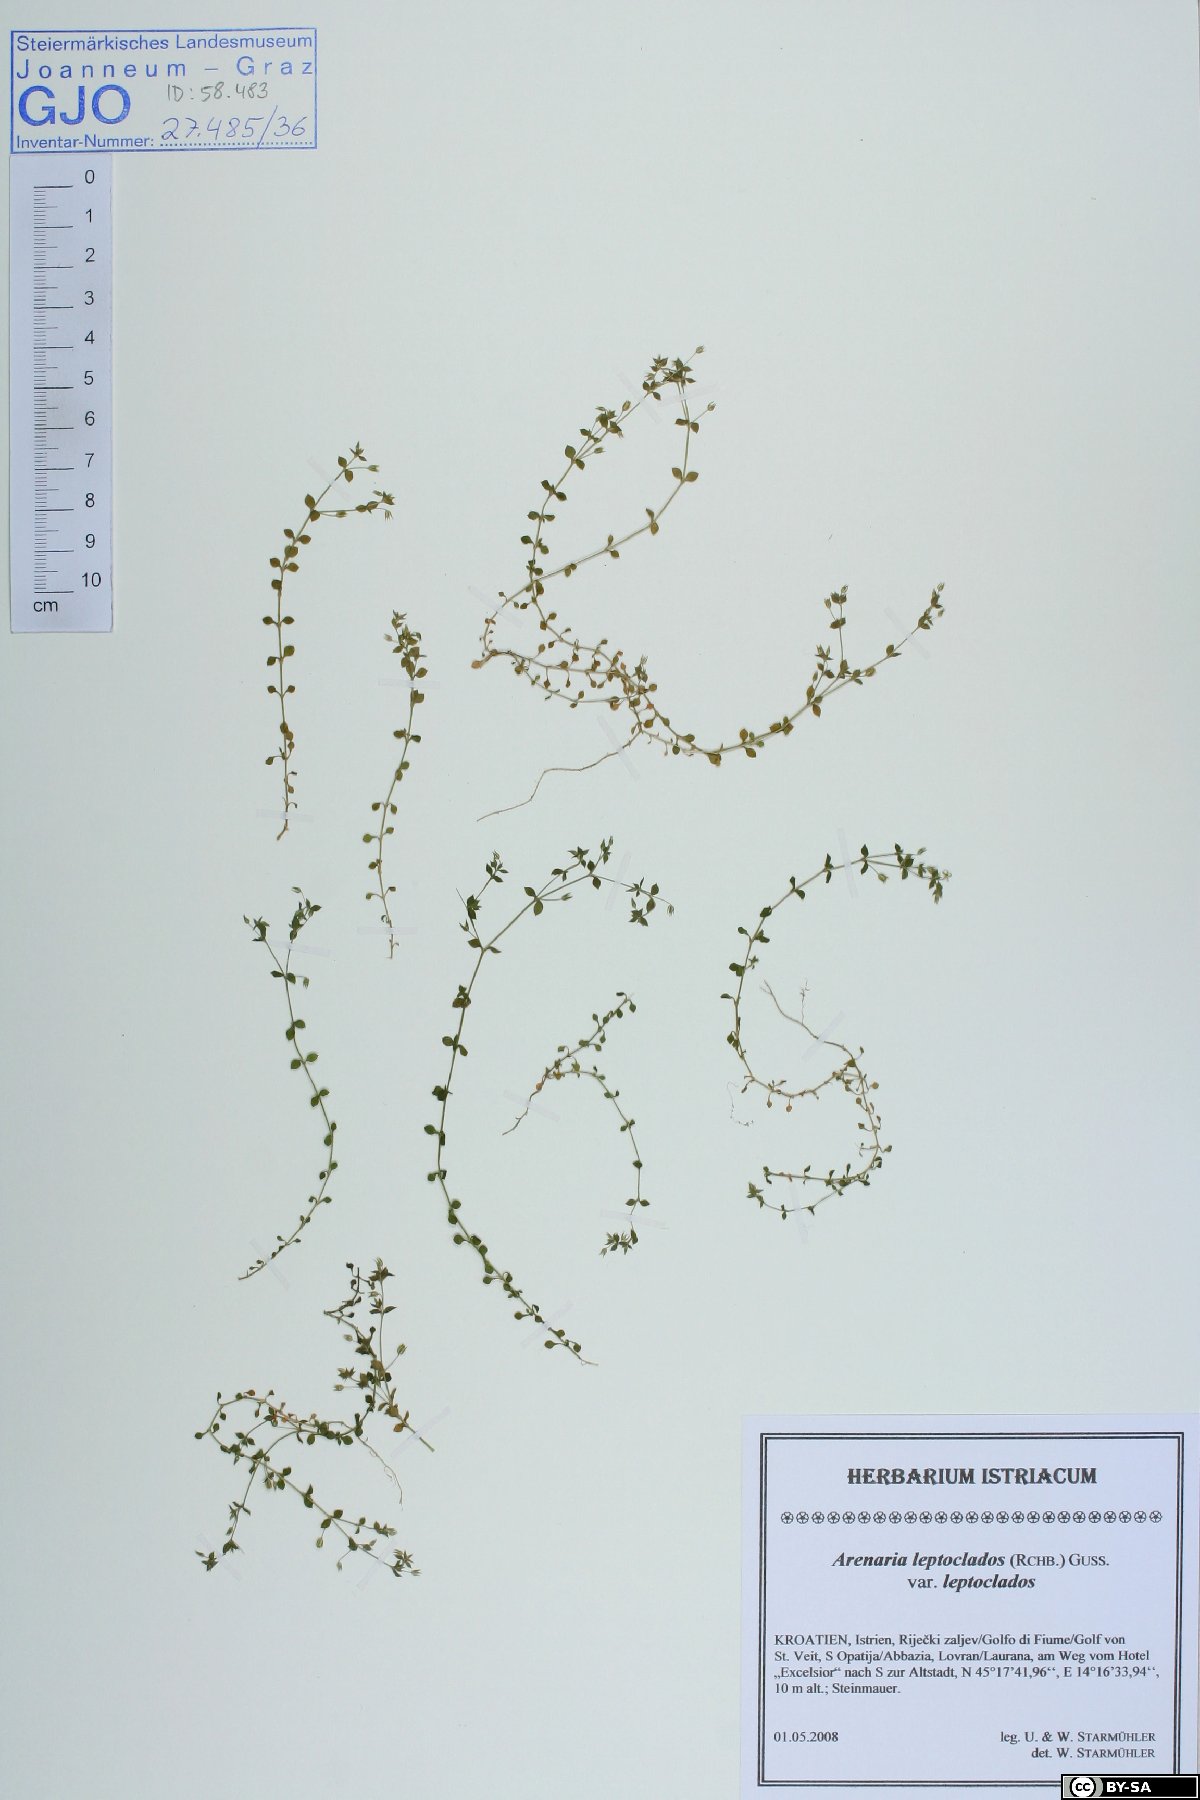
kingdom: Plantae
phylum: Tracheophyta
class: Magnoliopsida
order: Caryophyllales
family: Caryophyllaceae
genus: Arenaria
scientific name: Arenaria leptoclados
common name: Thyme-leaved sandwort
